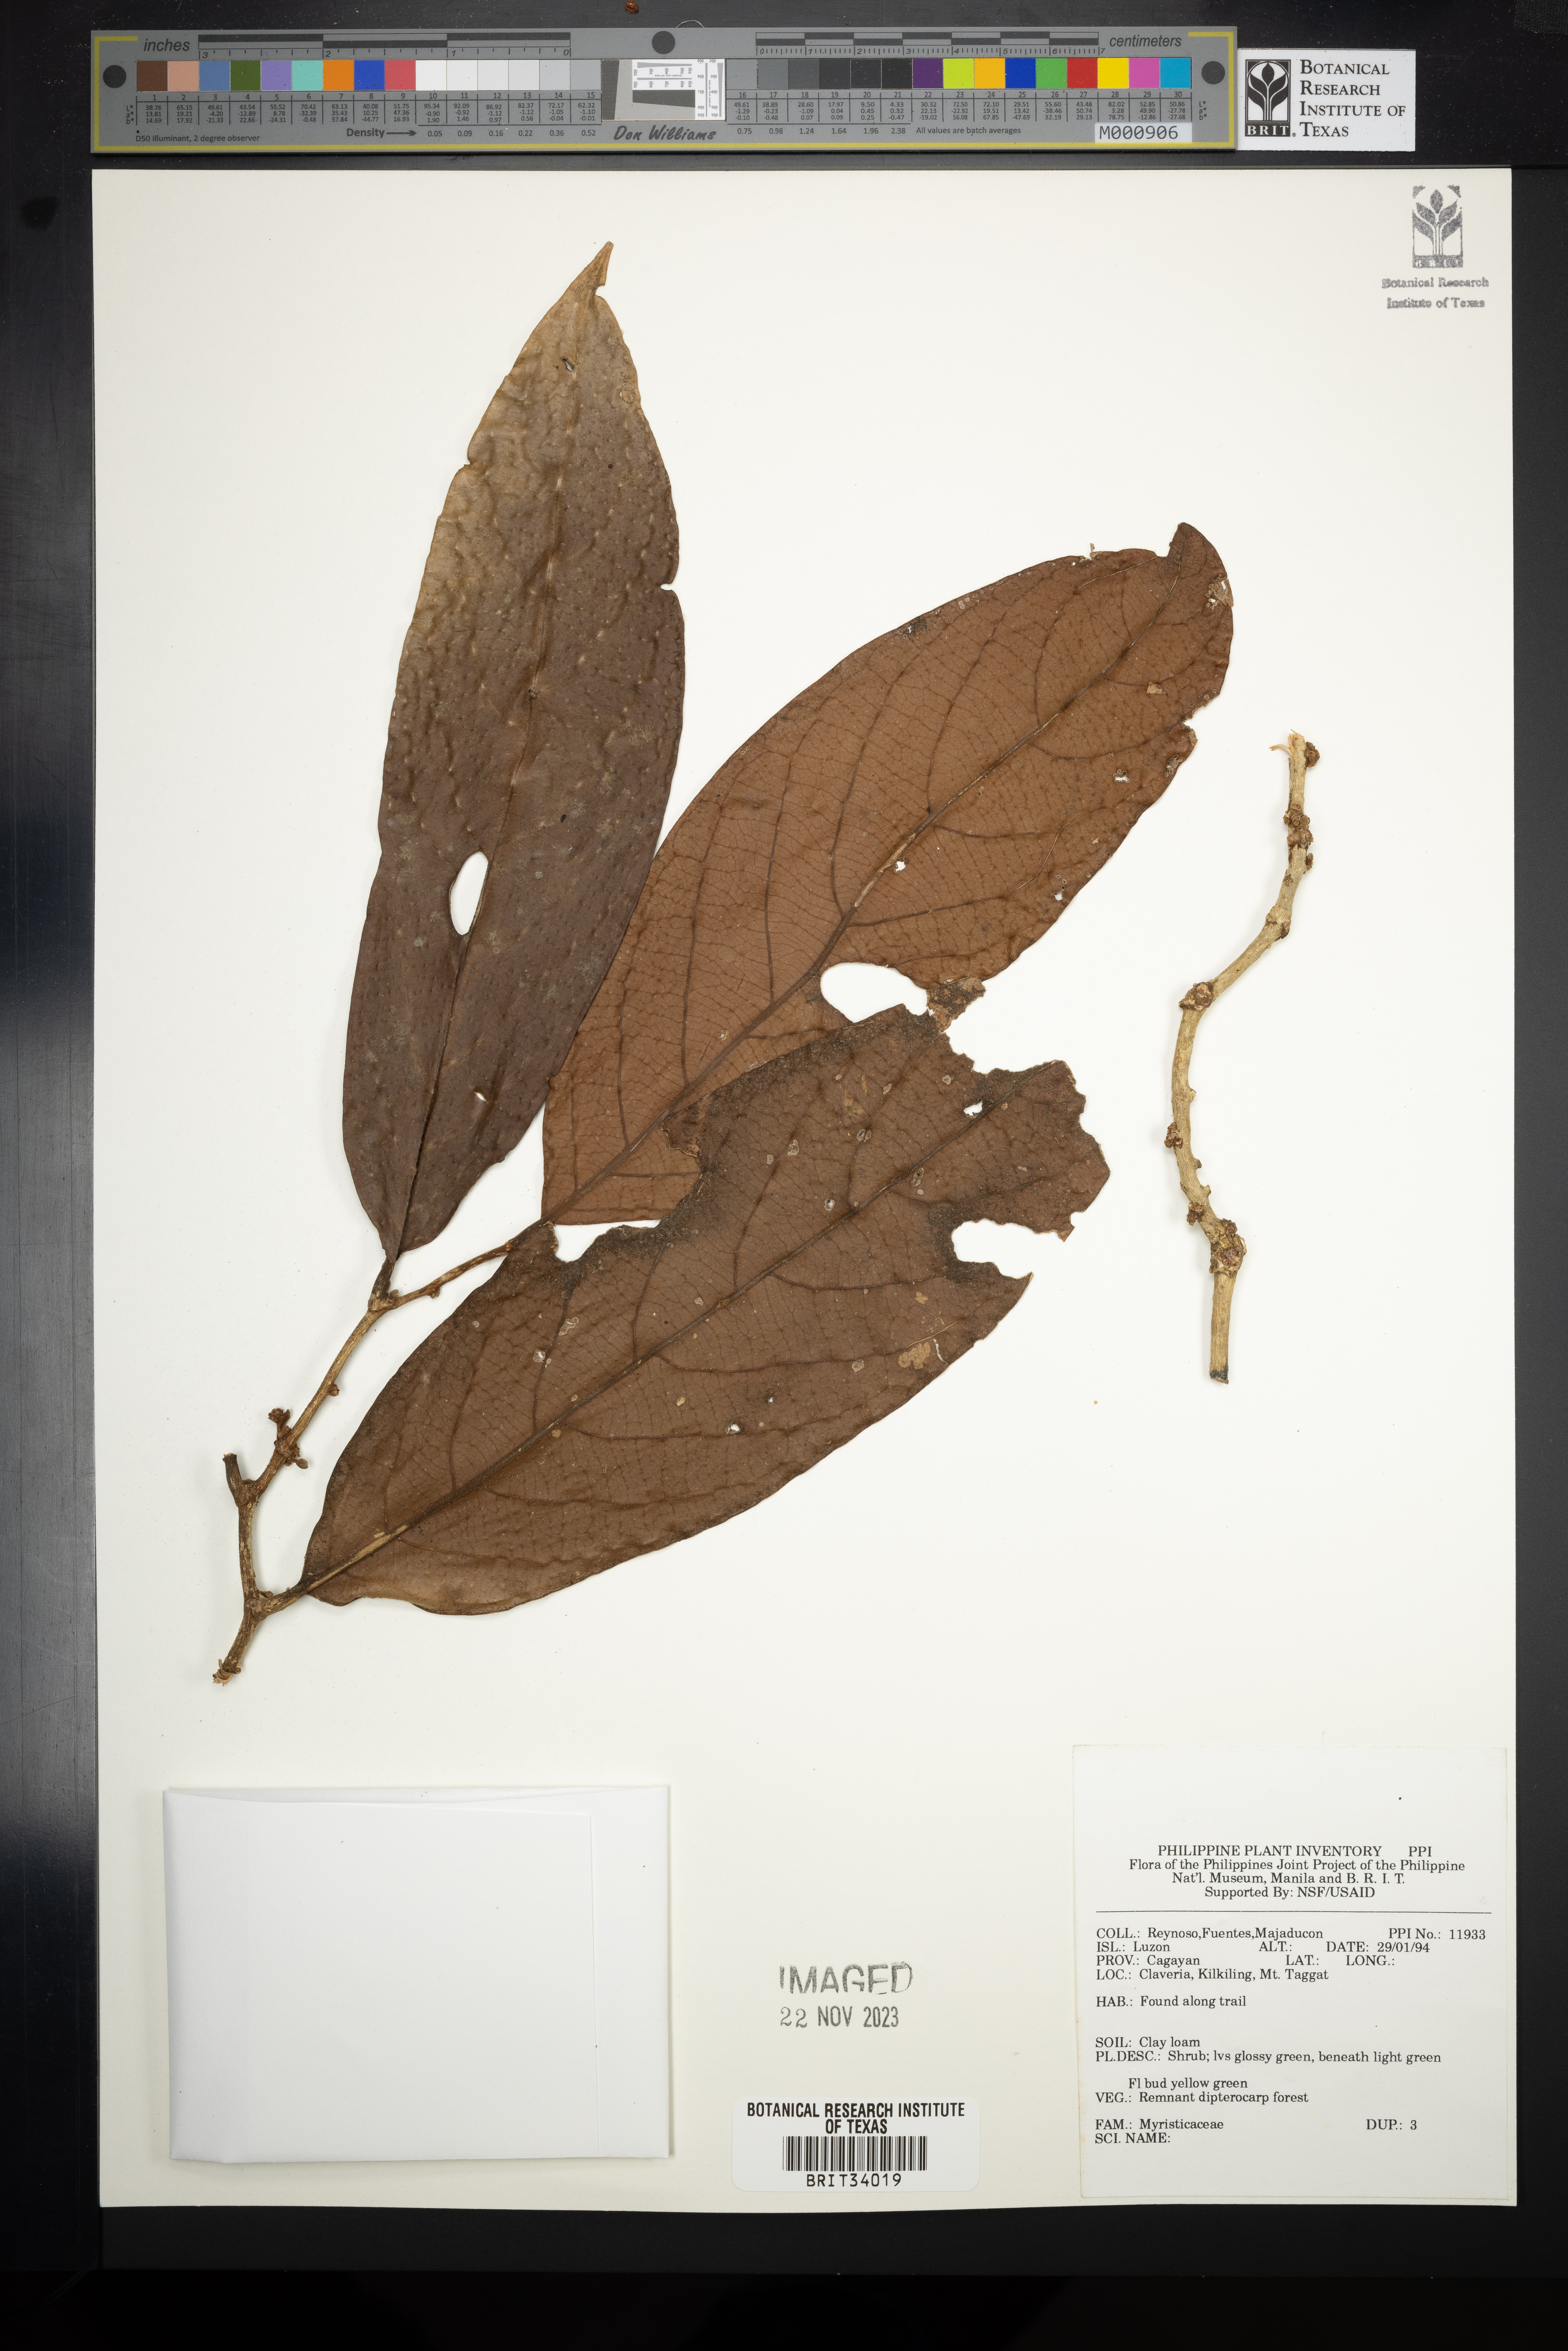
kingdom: Plantae
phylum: Tracheophyta
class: Magnoliopsida
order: Magnoliales
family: Myristicaceae
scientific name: Myristicaceae
